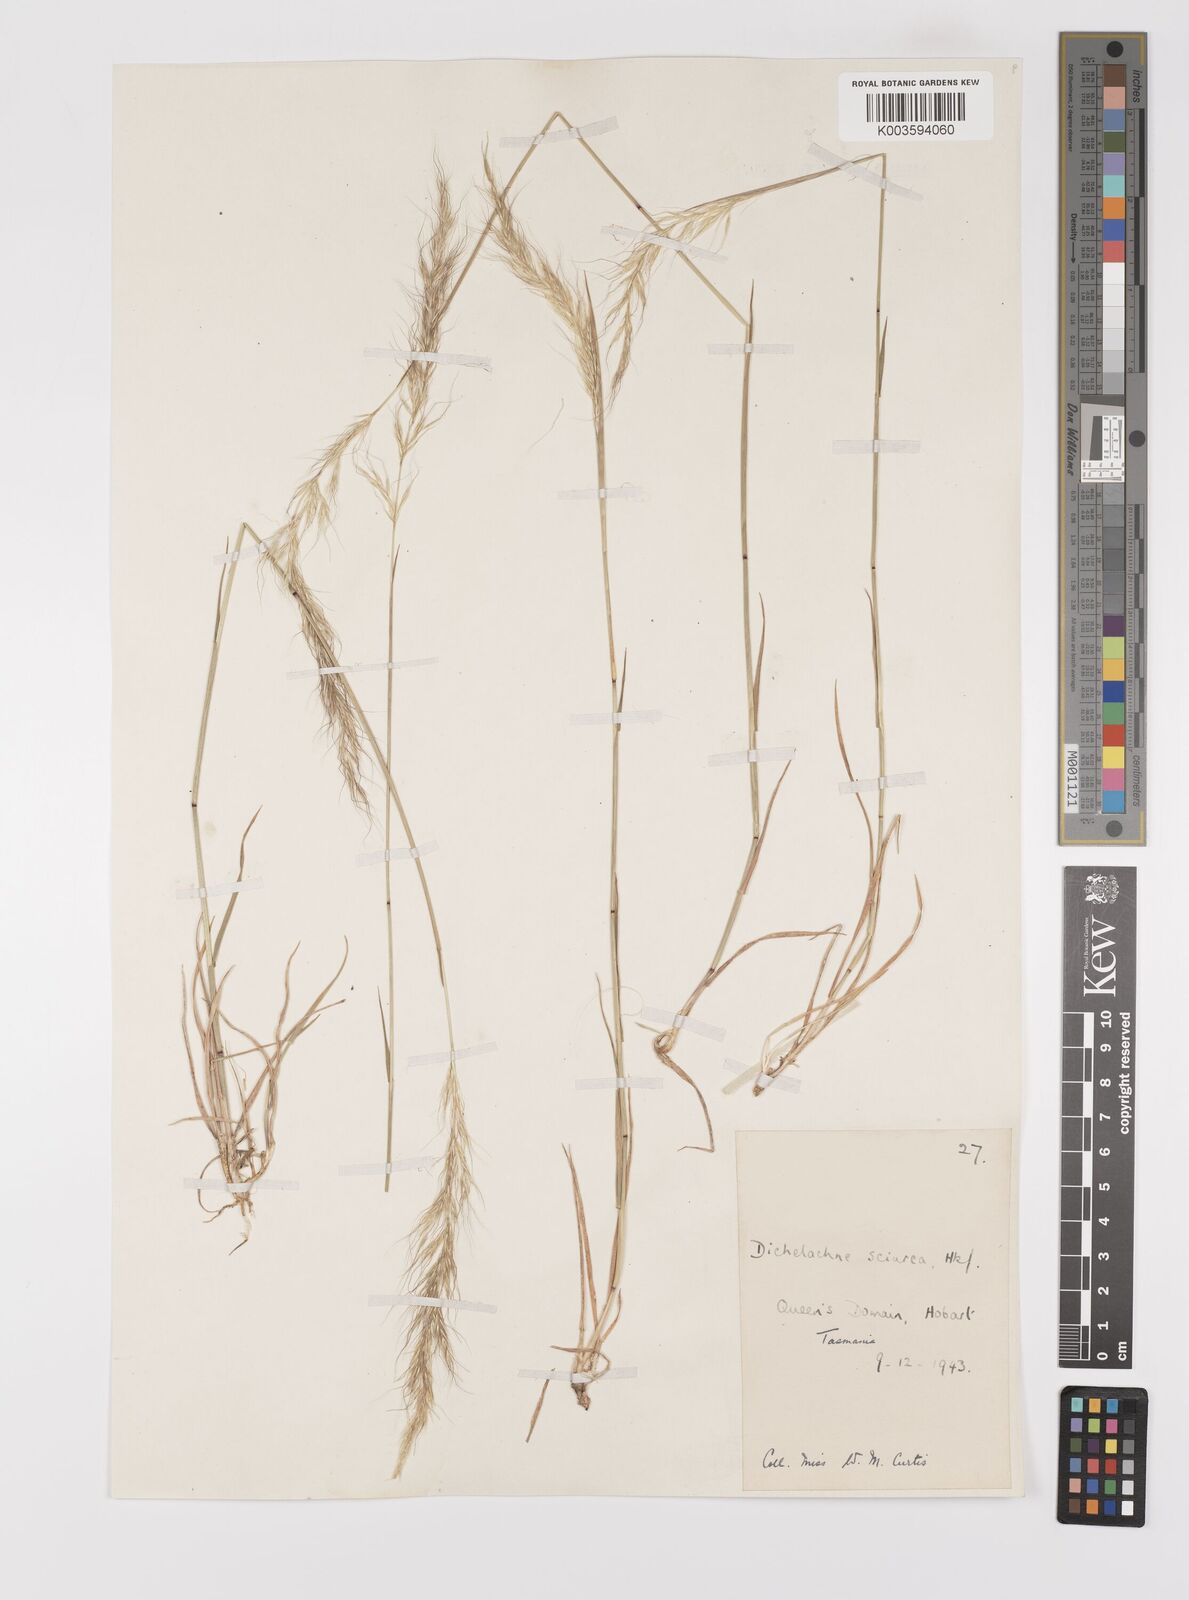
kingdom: Plantae
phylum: Tracheophyta
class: Liliopsida
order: Poales
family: Poaceae
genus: Dichelachne
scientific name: Dichelachne rara
